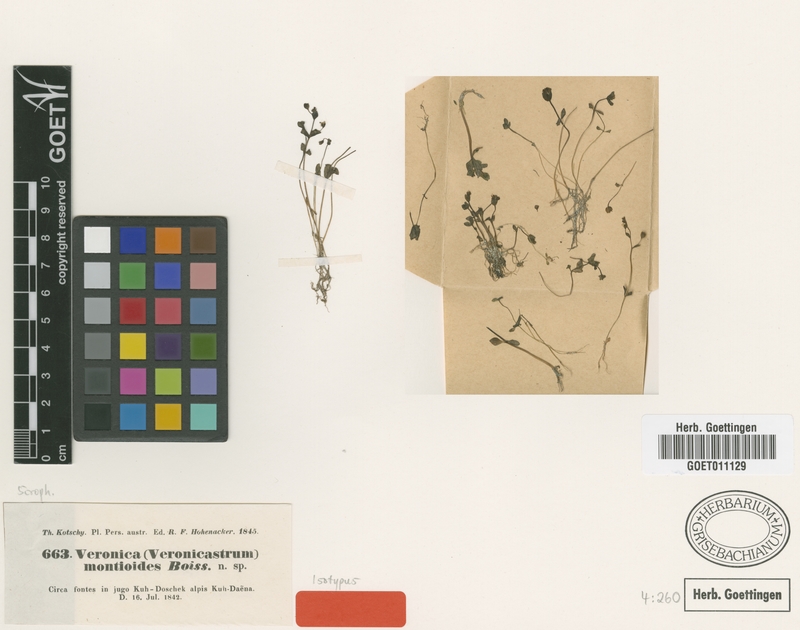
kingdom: Plantae
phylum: Tracheophyta
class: Magnoliopsida
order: Lamiales
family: Plantaginaceae
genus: Veronica
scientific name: Veronica oxycarpa
